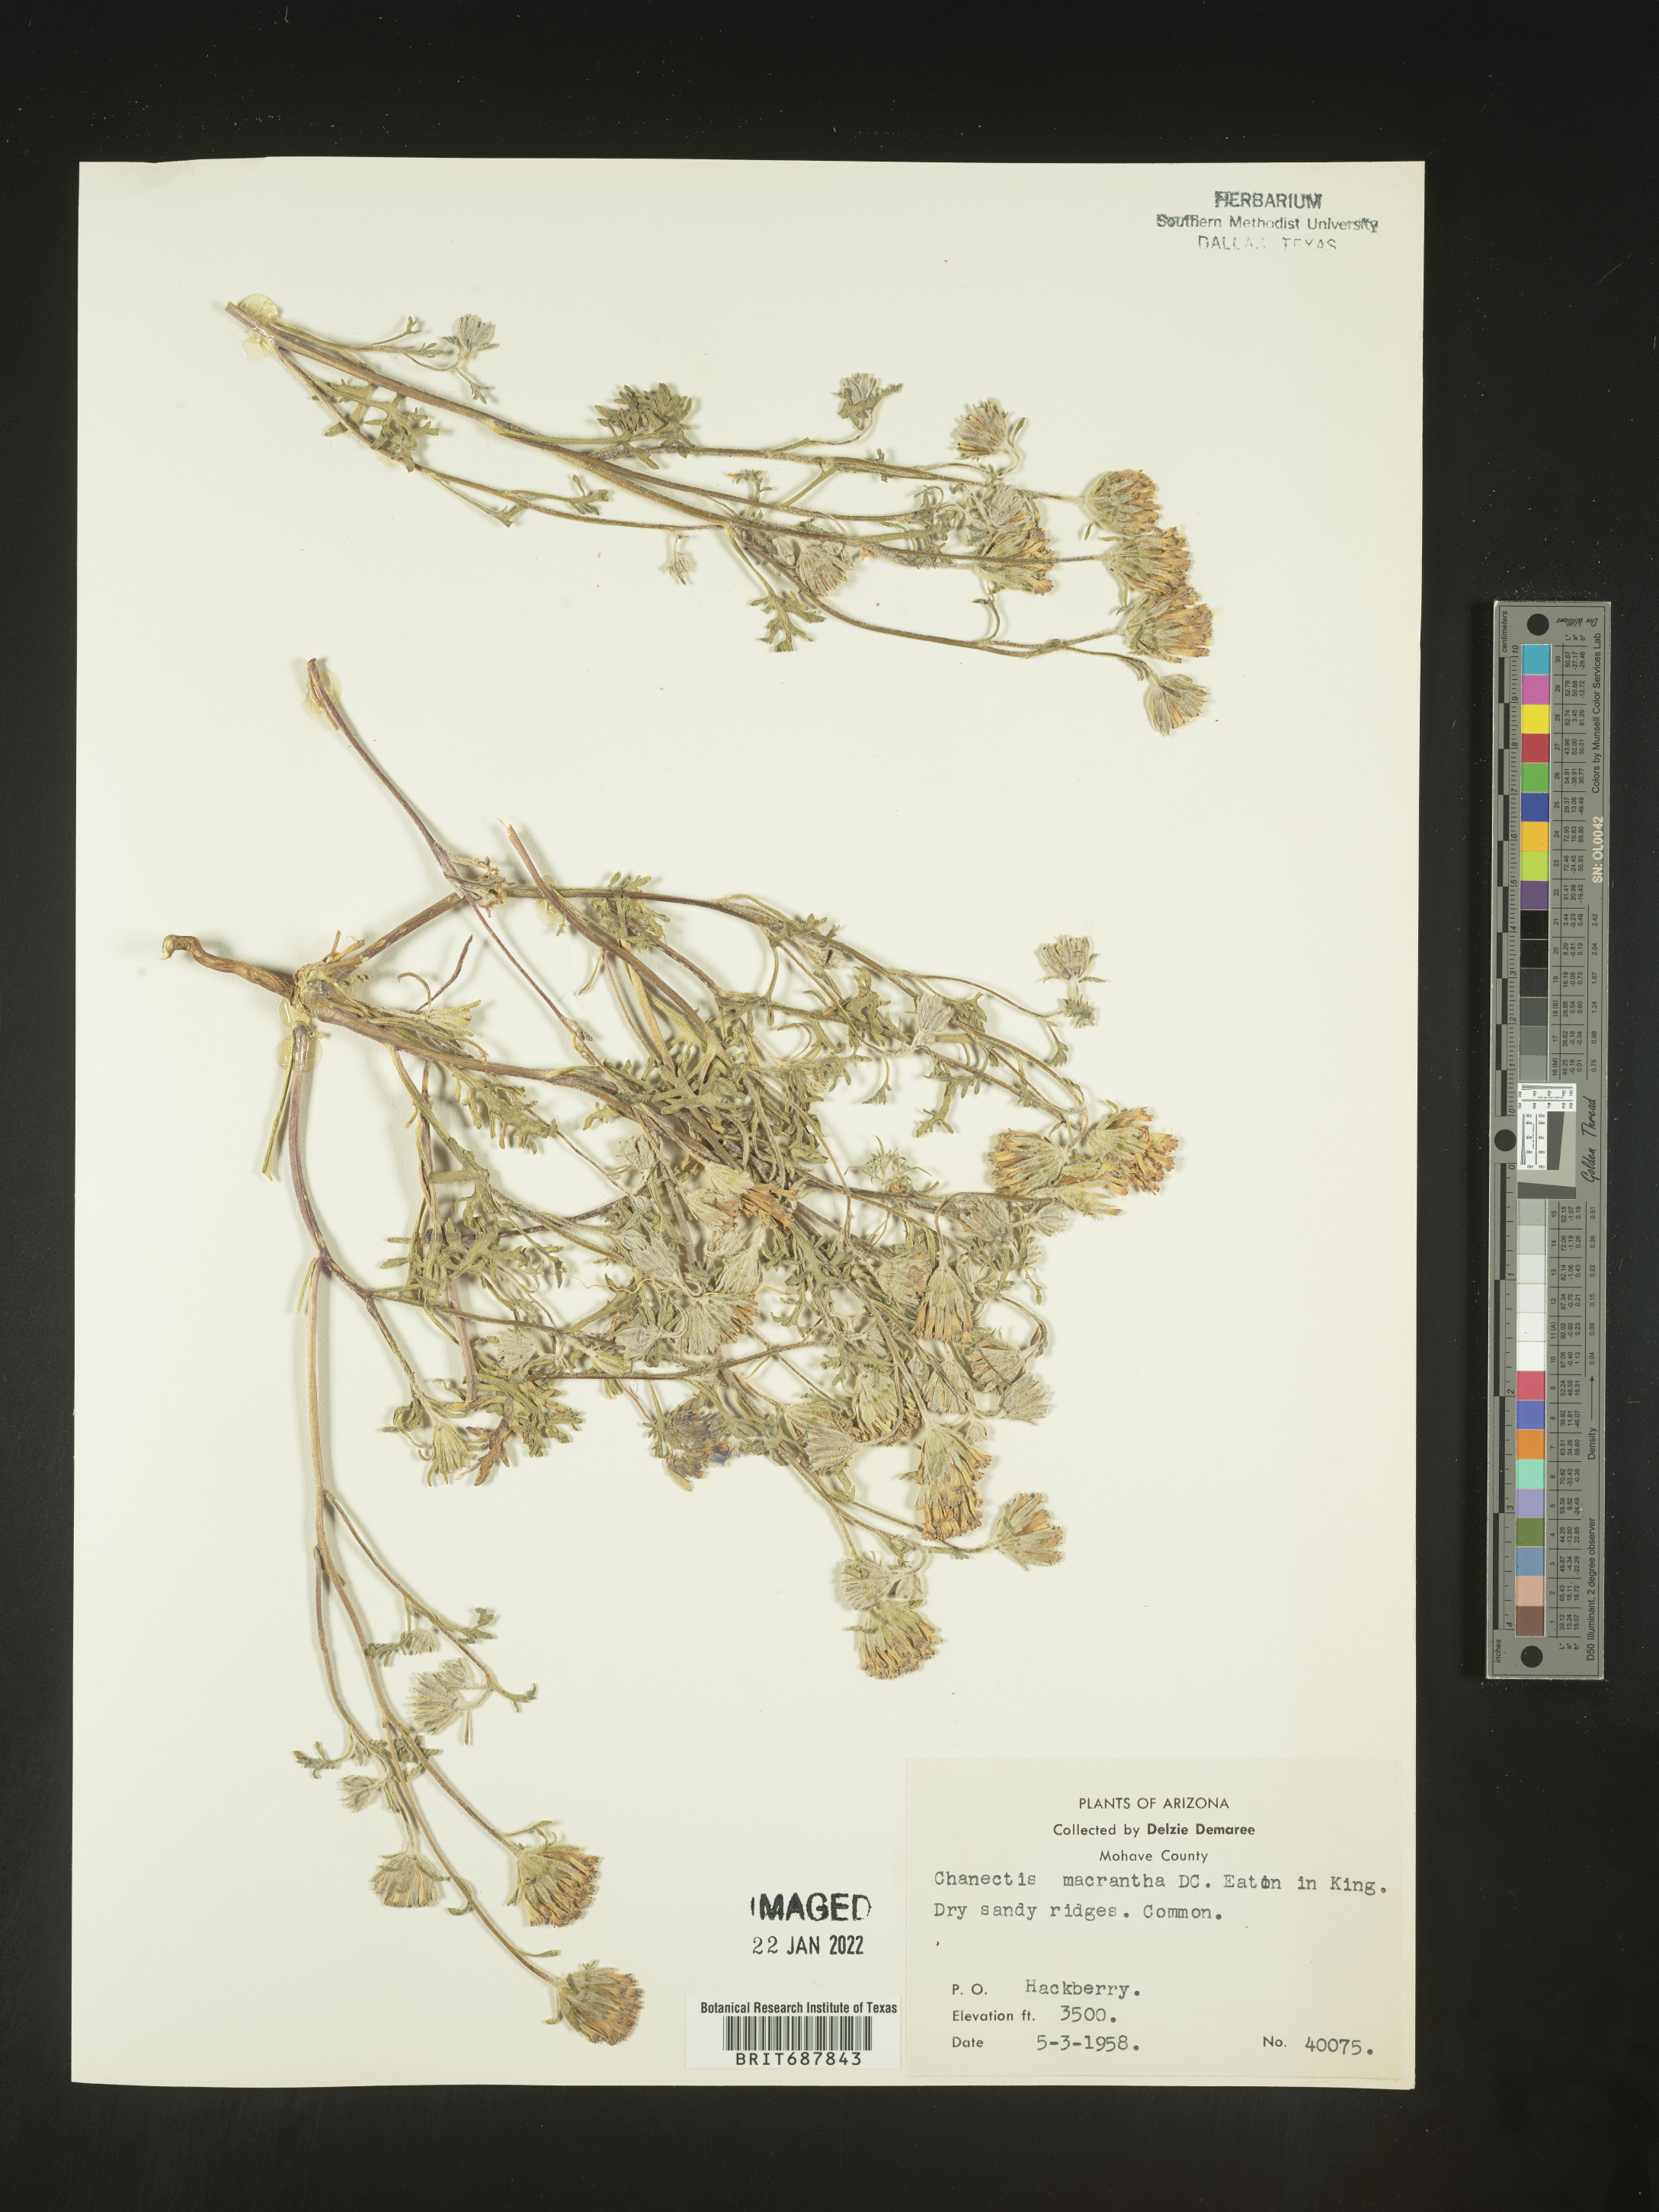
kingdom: Plantae
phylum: Tracheophyta
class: Magnoliopsida
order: Asterales
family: Asteraceae
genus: Chaenactis
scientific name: Chaenactis macrantha
